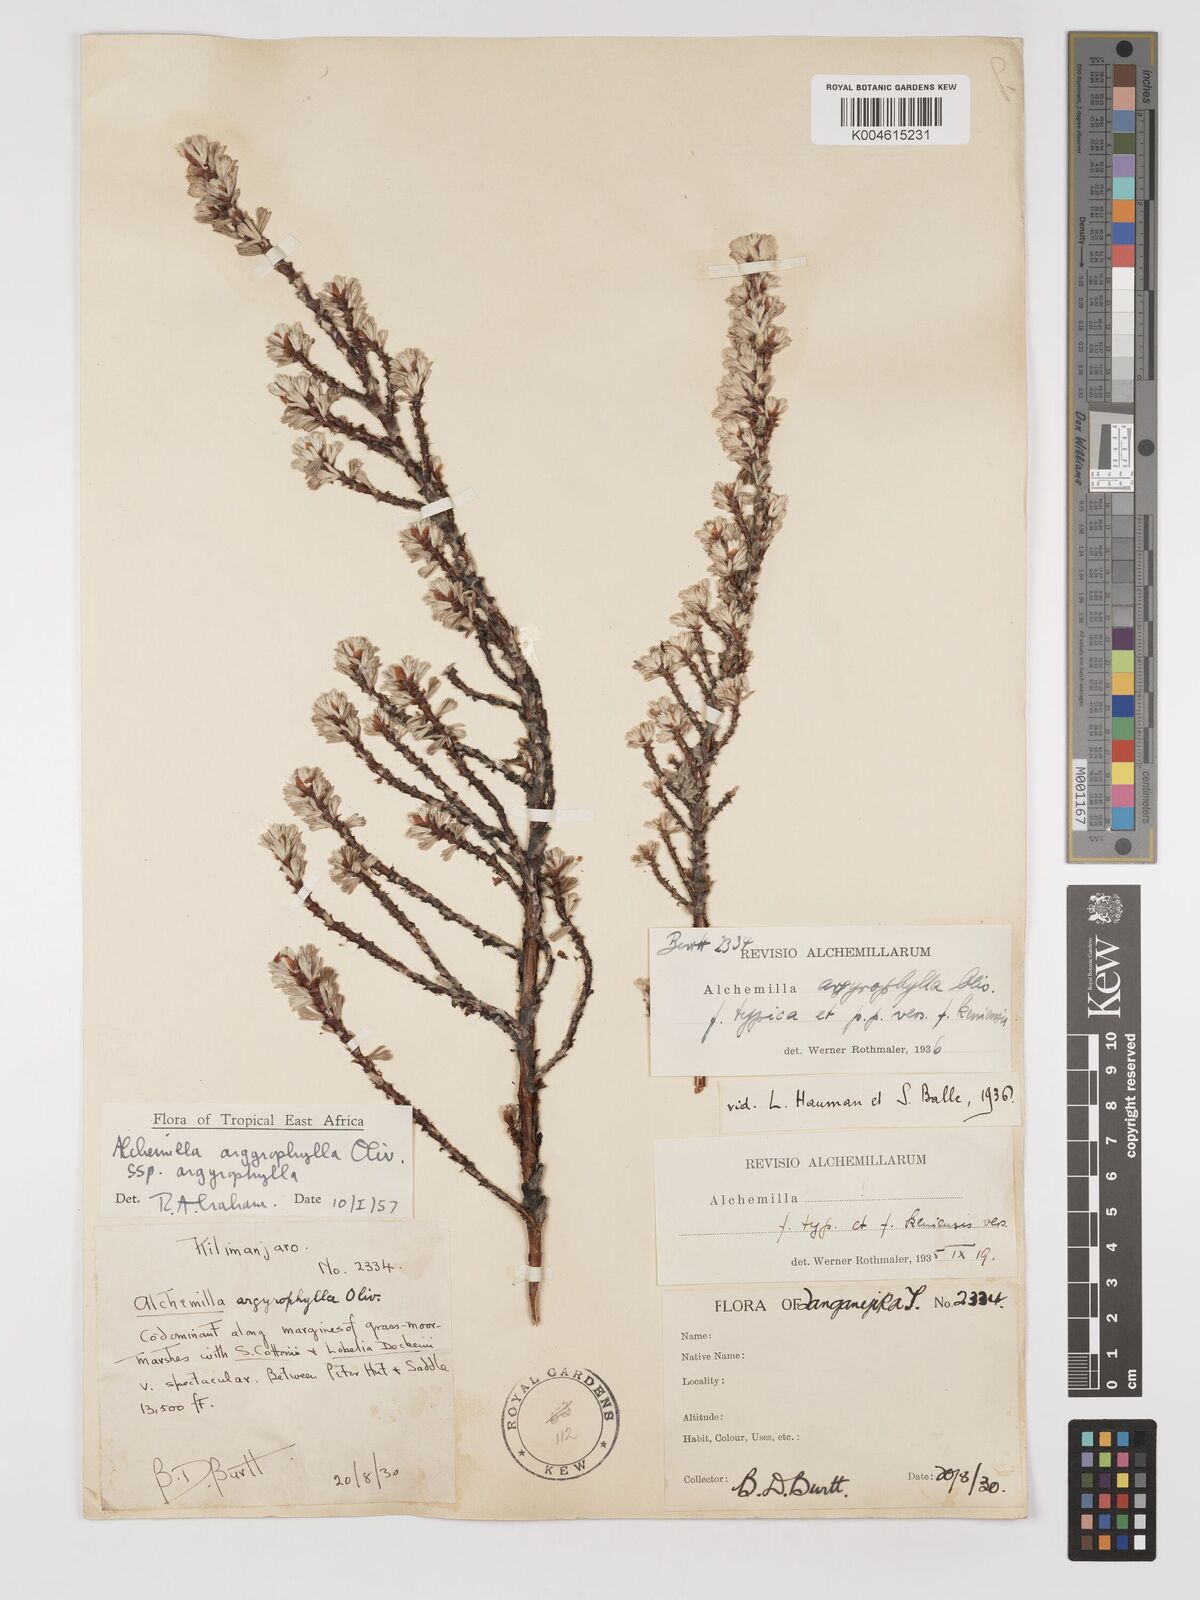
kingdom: Plantae
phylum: Tracheophyta
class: Magnoliopsida
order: Rosales
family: Rosaceae
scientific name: Rosaceae
